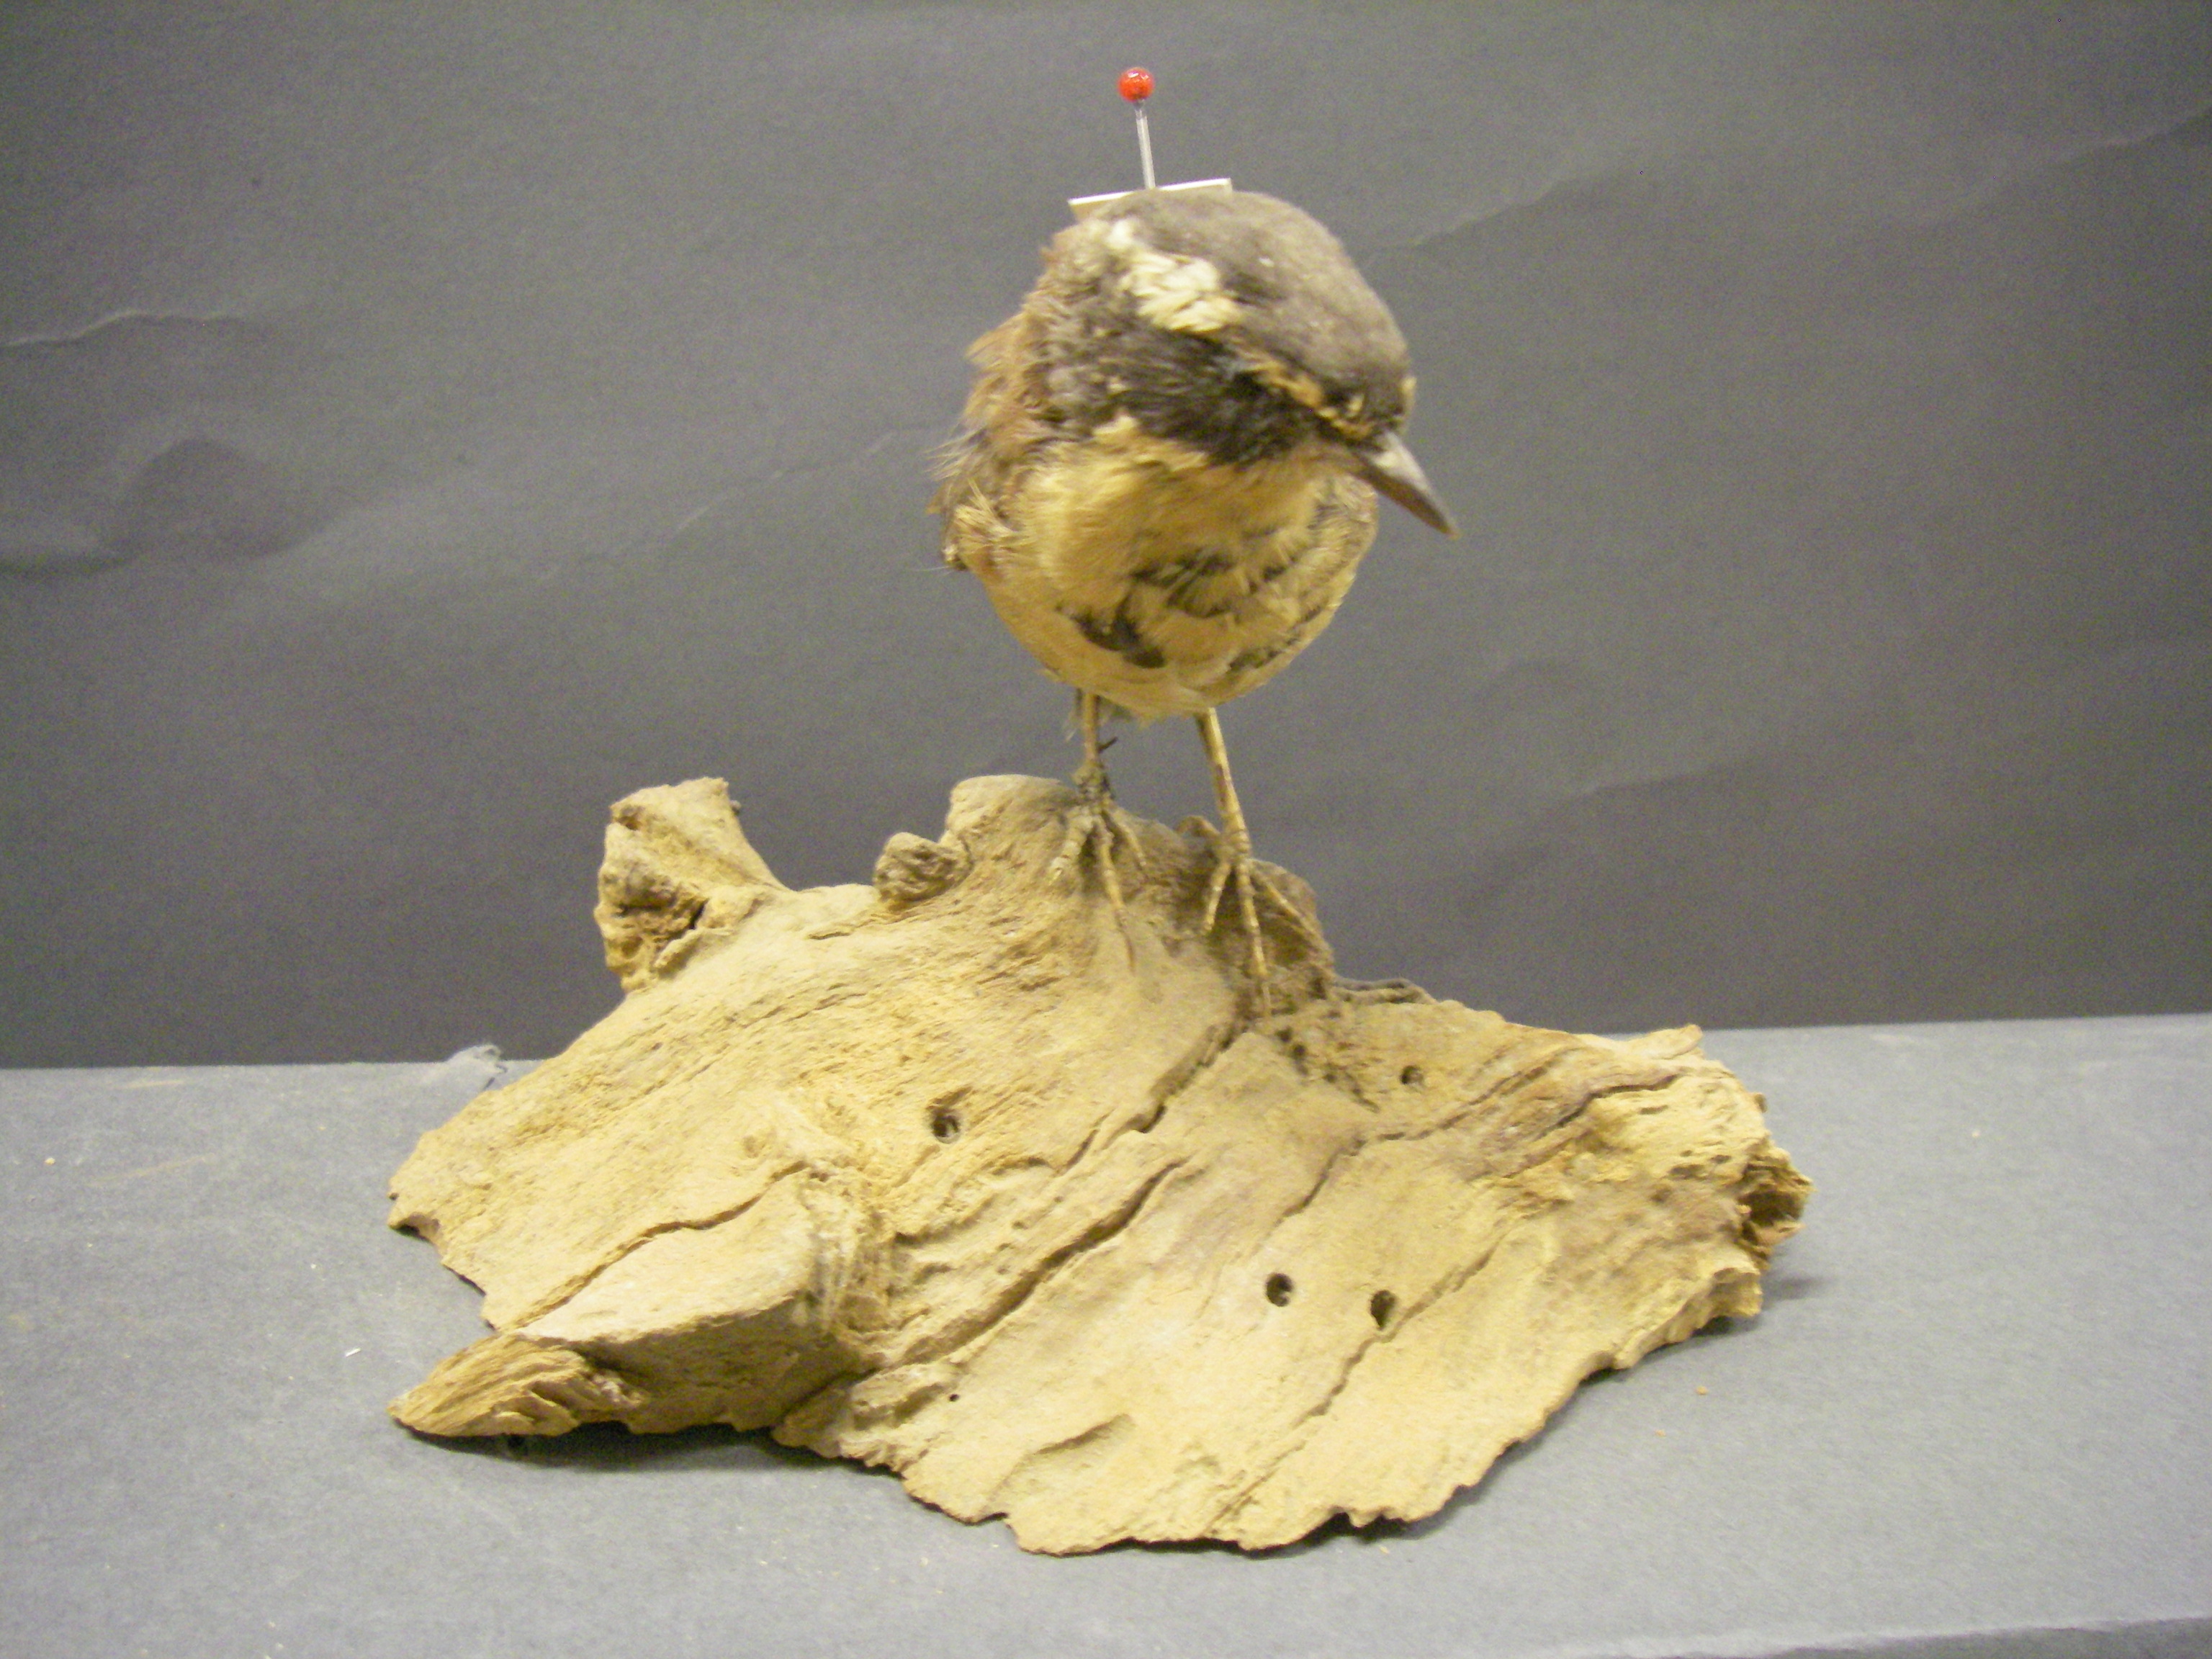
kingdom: Animalia
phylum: Chordata
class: Aves
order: Passeriformes
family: Prunellidae
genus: Prunella
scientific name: Prunella montanella
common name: Siberian accentor
